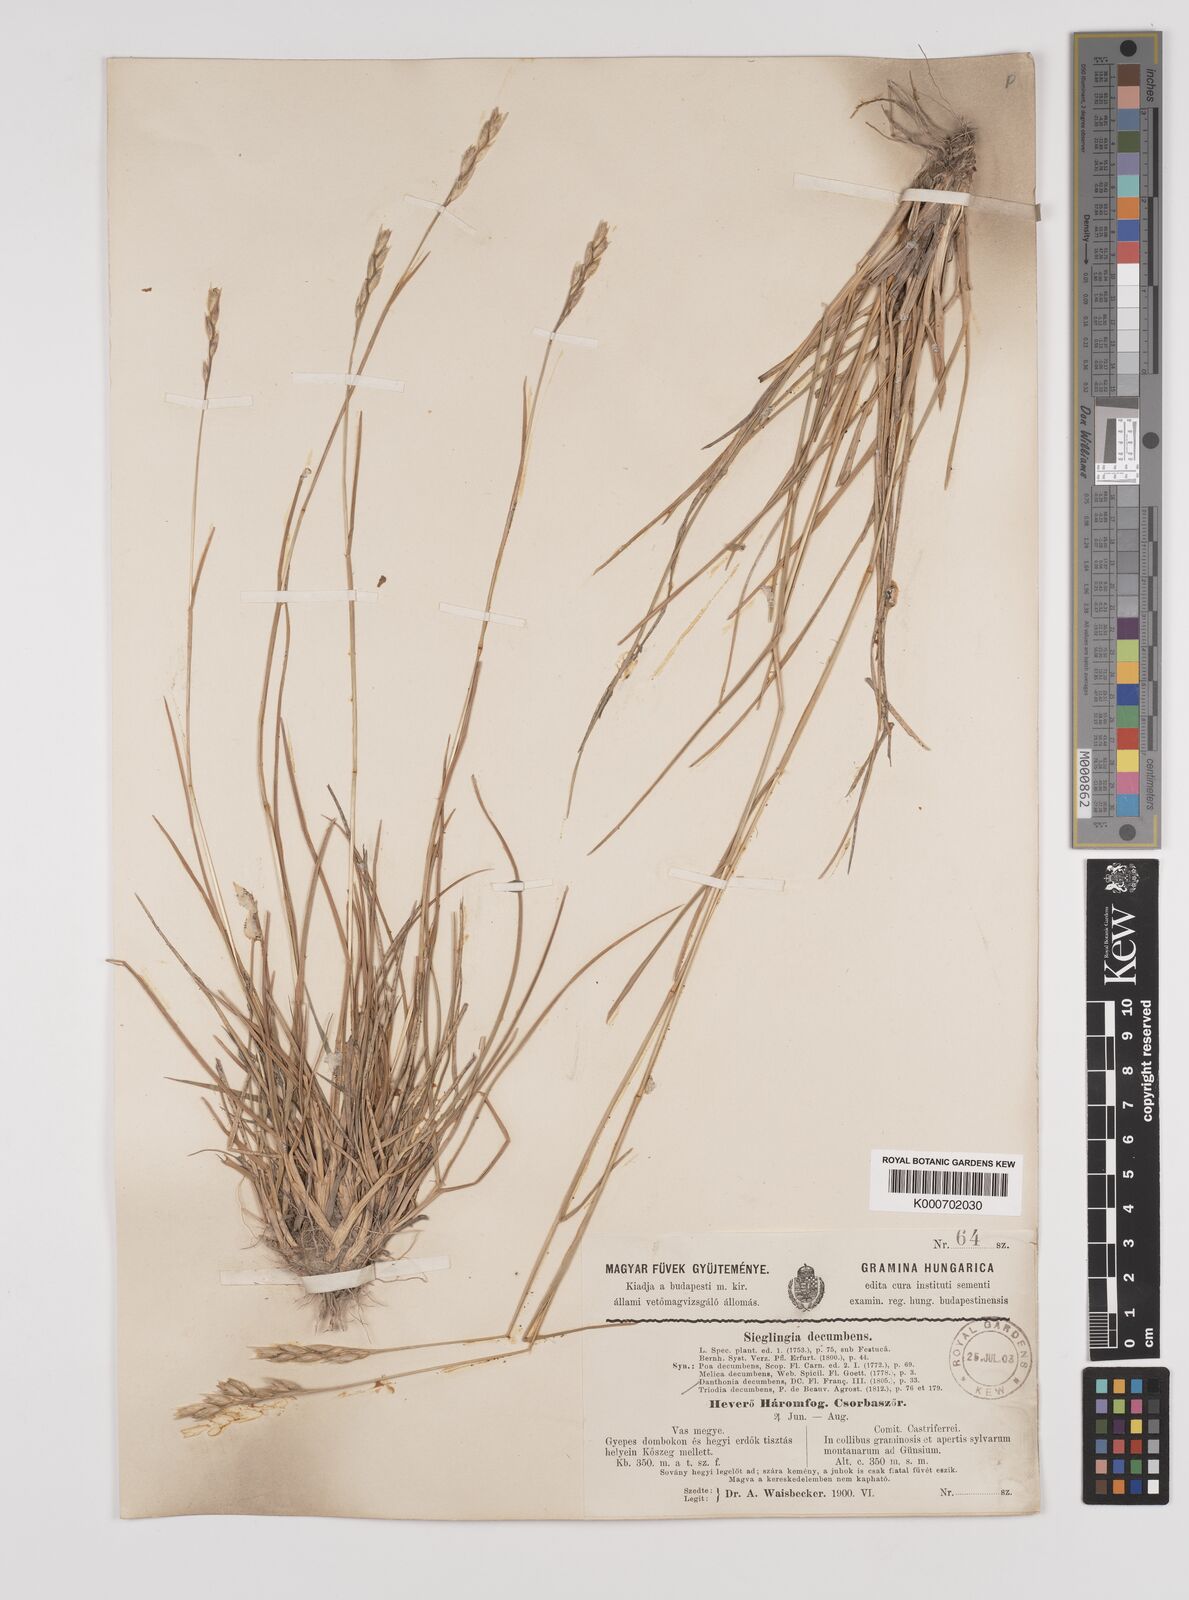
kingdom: Plantae
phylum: Tracheophyta
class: Liliopsida
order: Poales
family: Poaceae
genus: Danthonia
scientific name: Danthonia decumbens
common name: Common heathgrass
